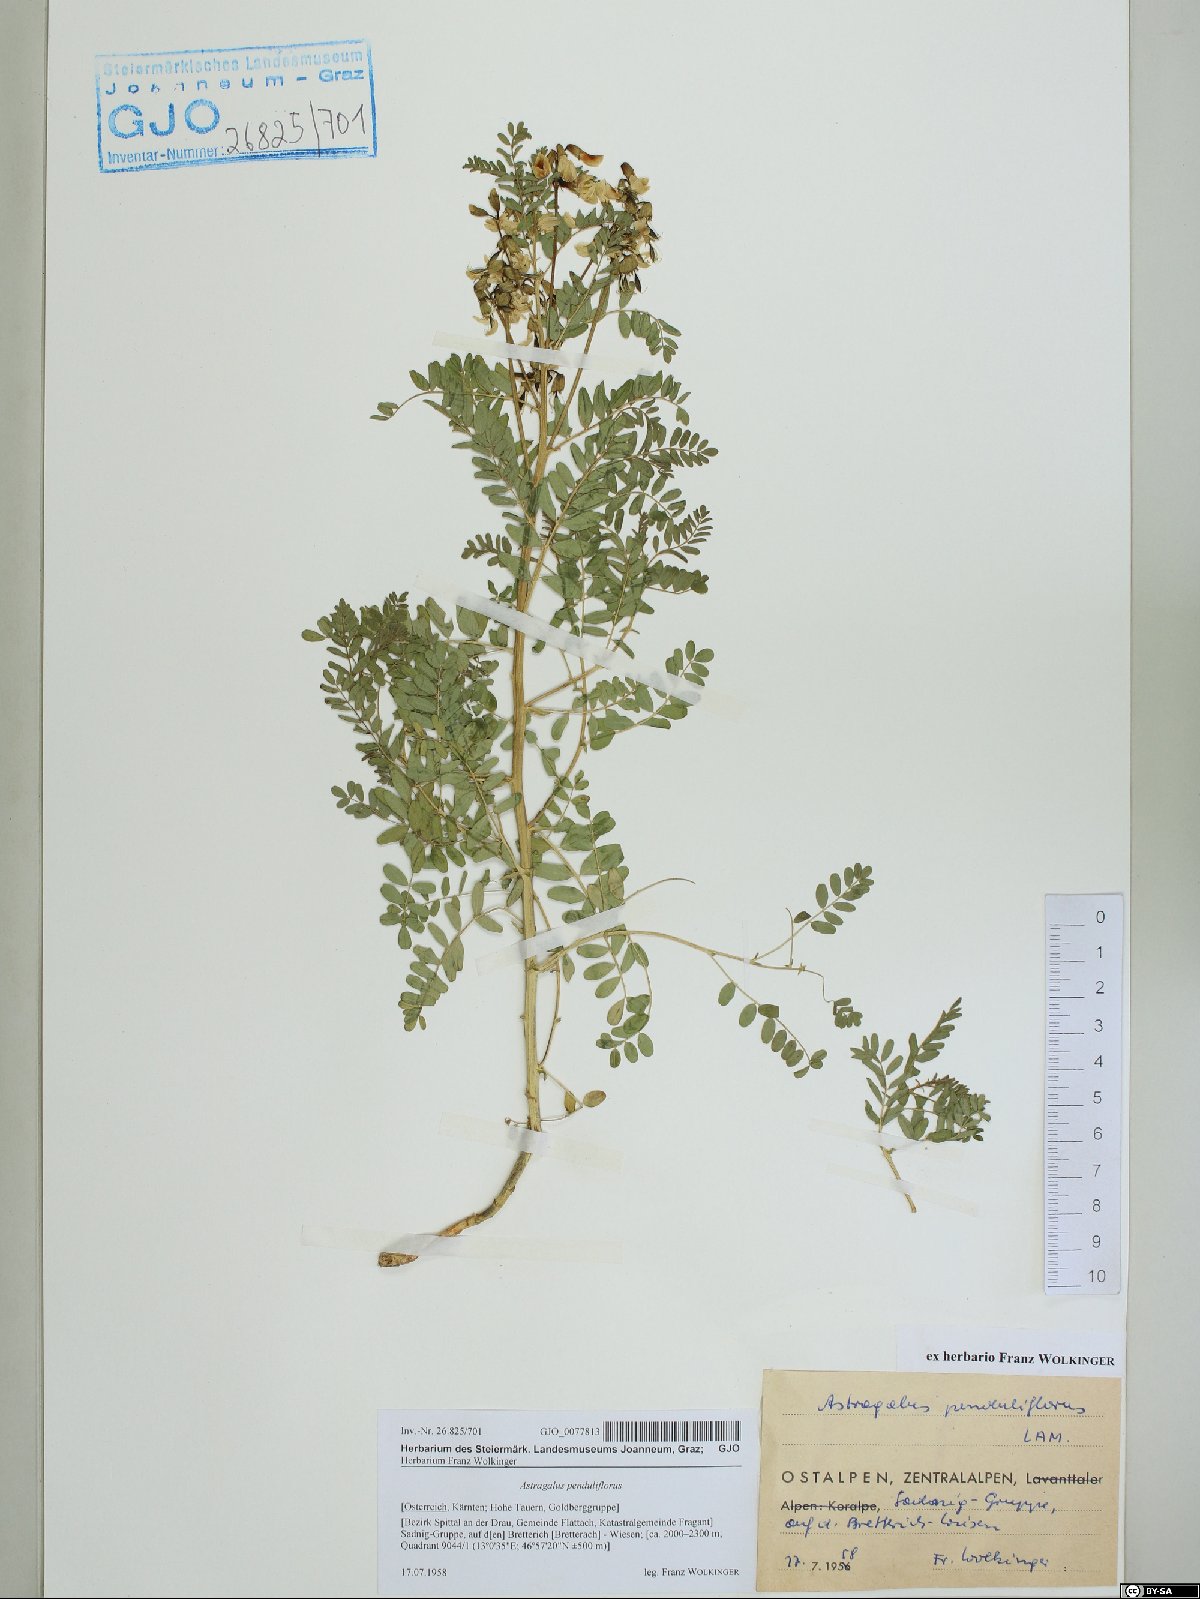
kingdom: Plantae
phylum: Tracheophyta
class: Magnoliopsida
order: Fabales
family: Fabaceae
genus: Astragalus
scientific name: Astragalus penduliflorus
